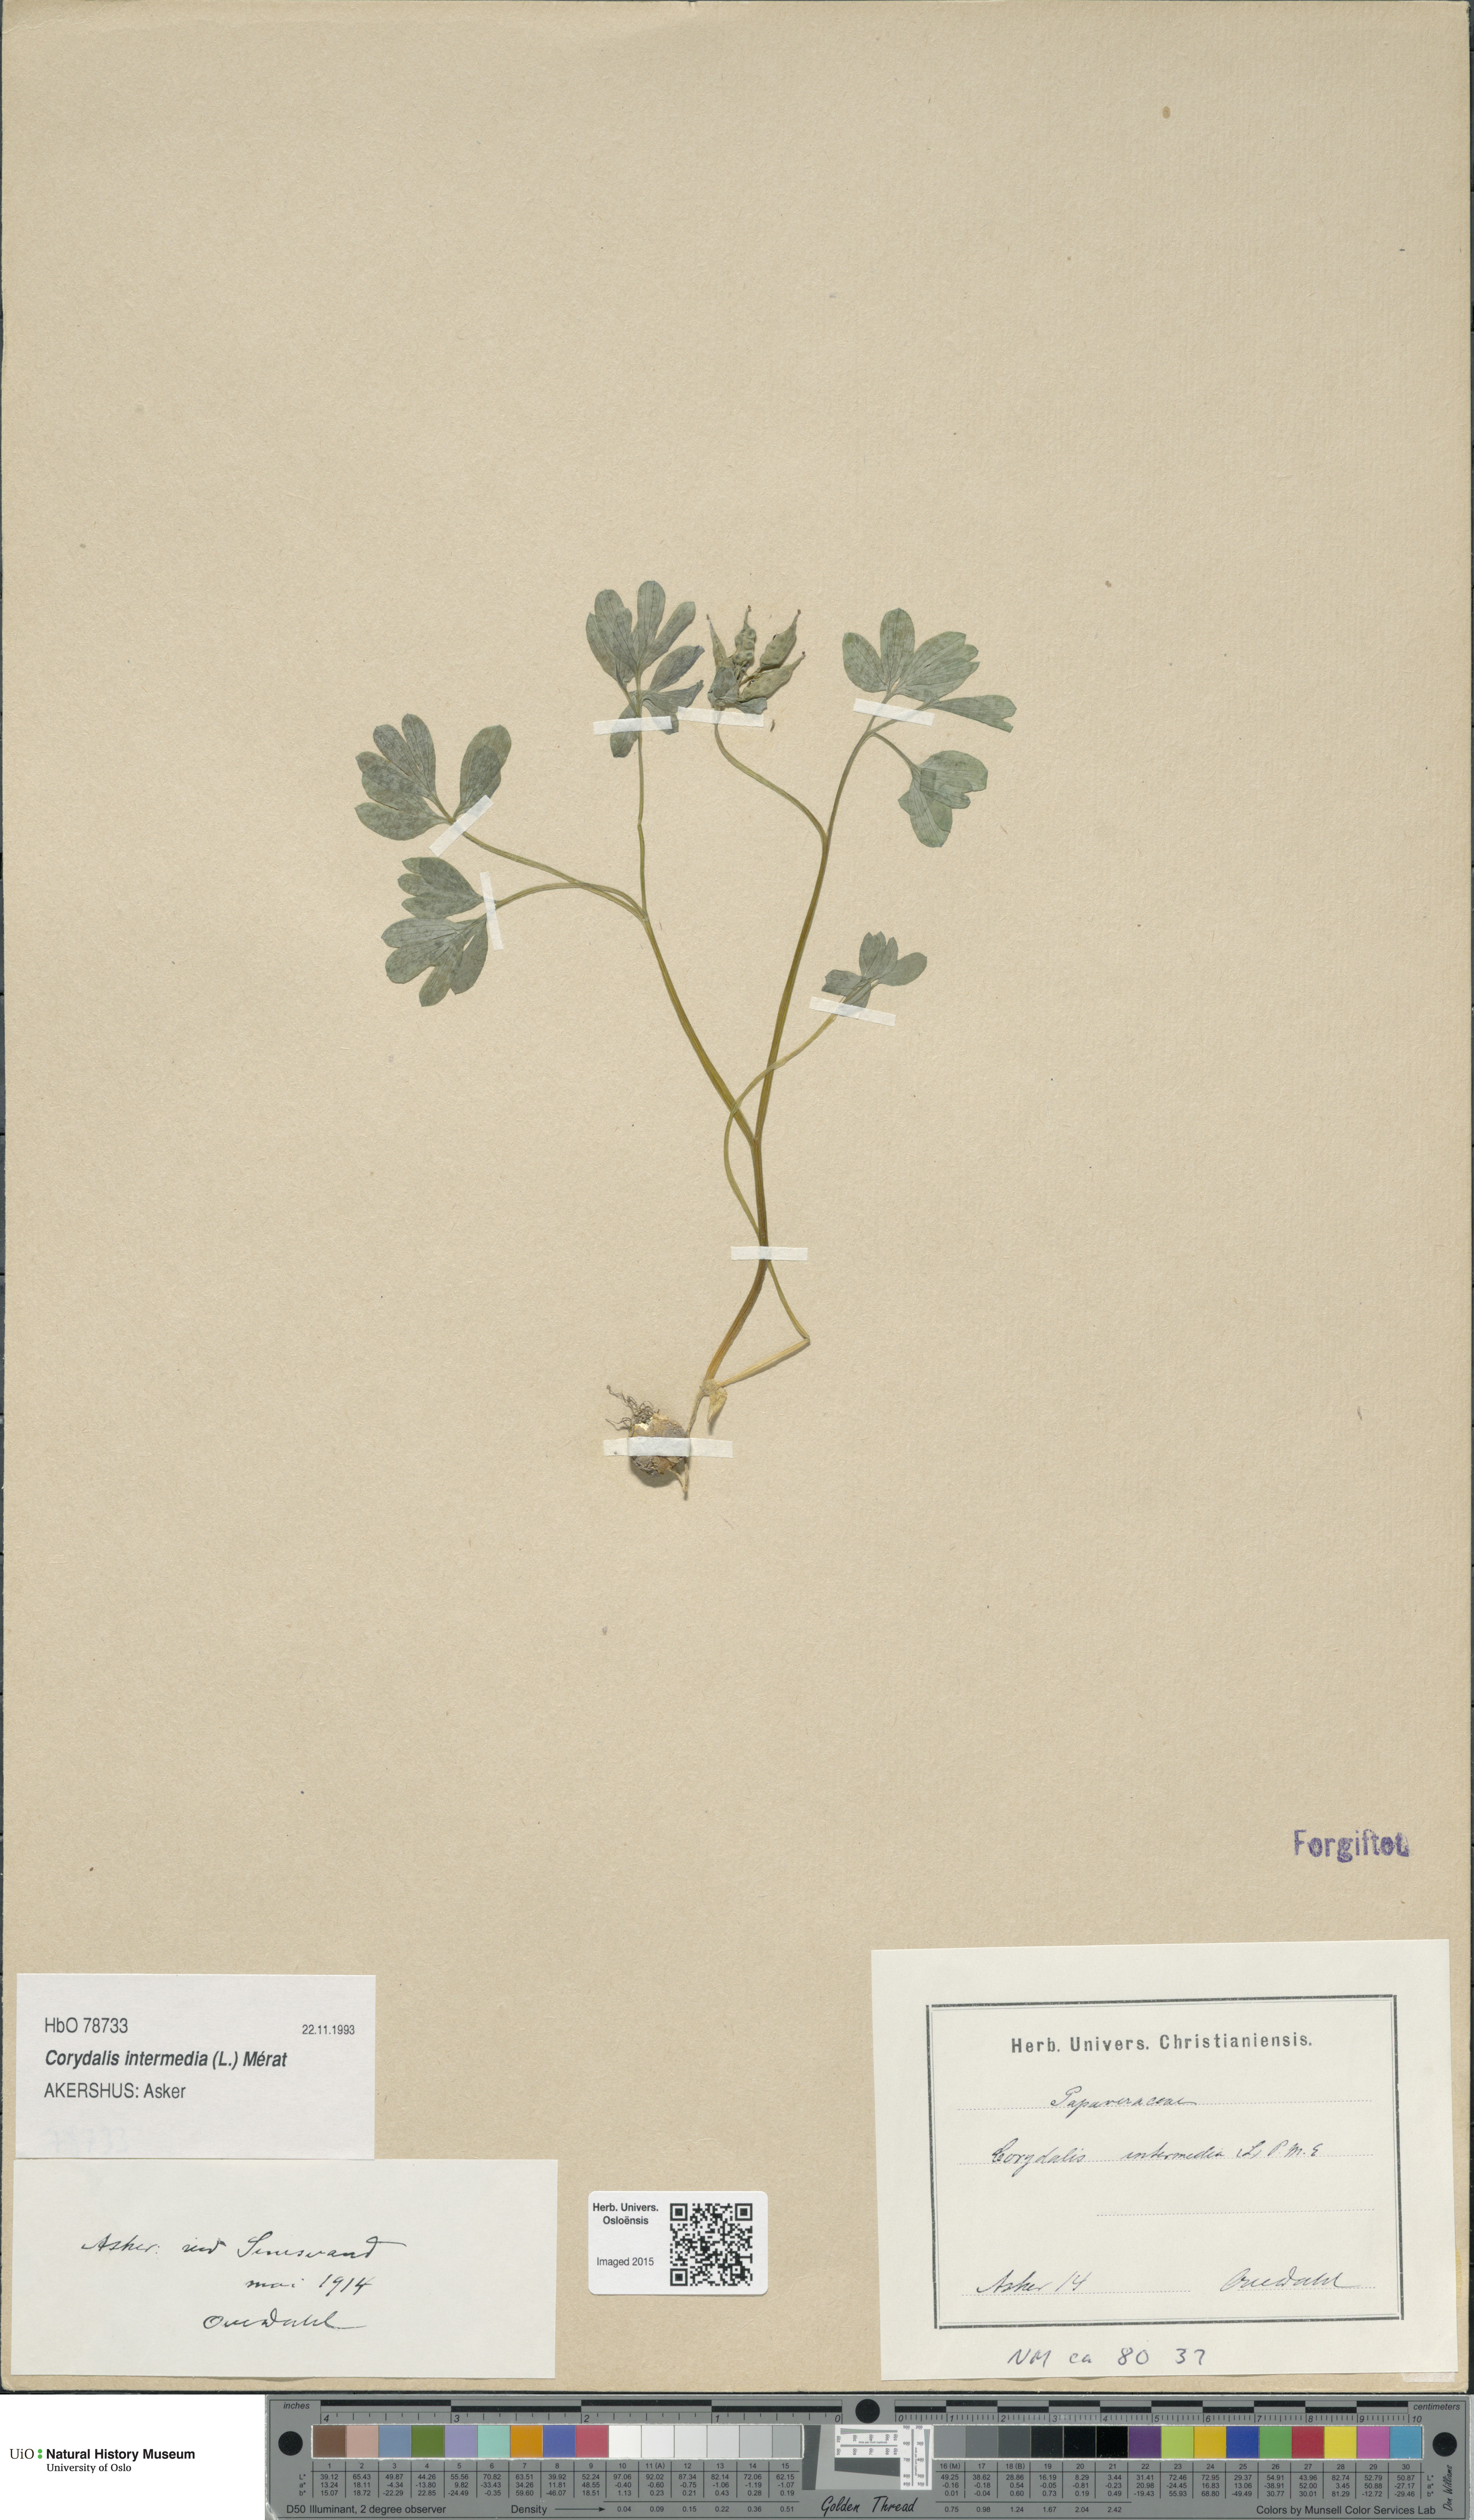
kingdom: Plantae
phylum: Tracheophyta
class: Magnoliopsida
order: Ranunculales
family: Papaveraceae
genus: Corydalis
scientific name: Corydalis intermedia
